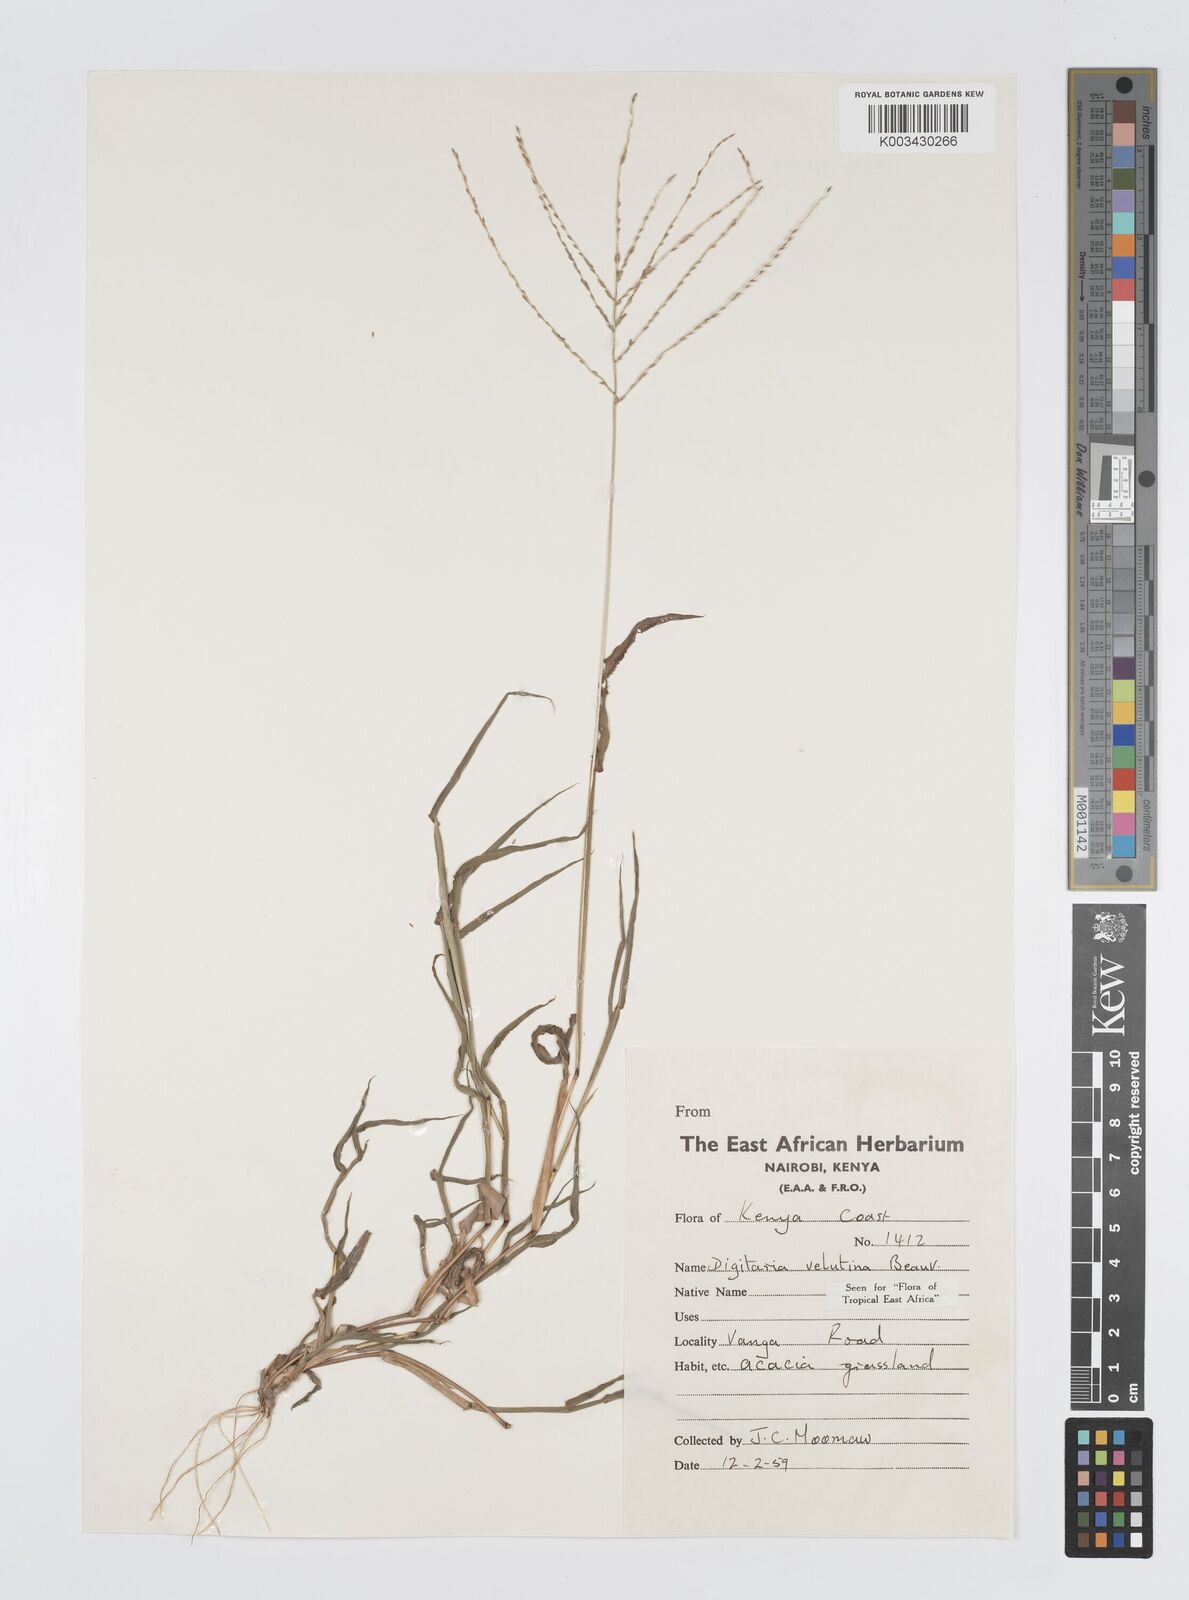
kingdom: Plantae
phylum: Tracheophyta
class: Liliopsida
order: Poales
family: Poaceae
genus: Digitaria
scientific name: Digitaria velutina
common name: Long-plume finger grass
